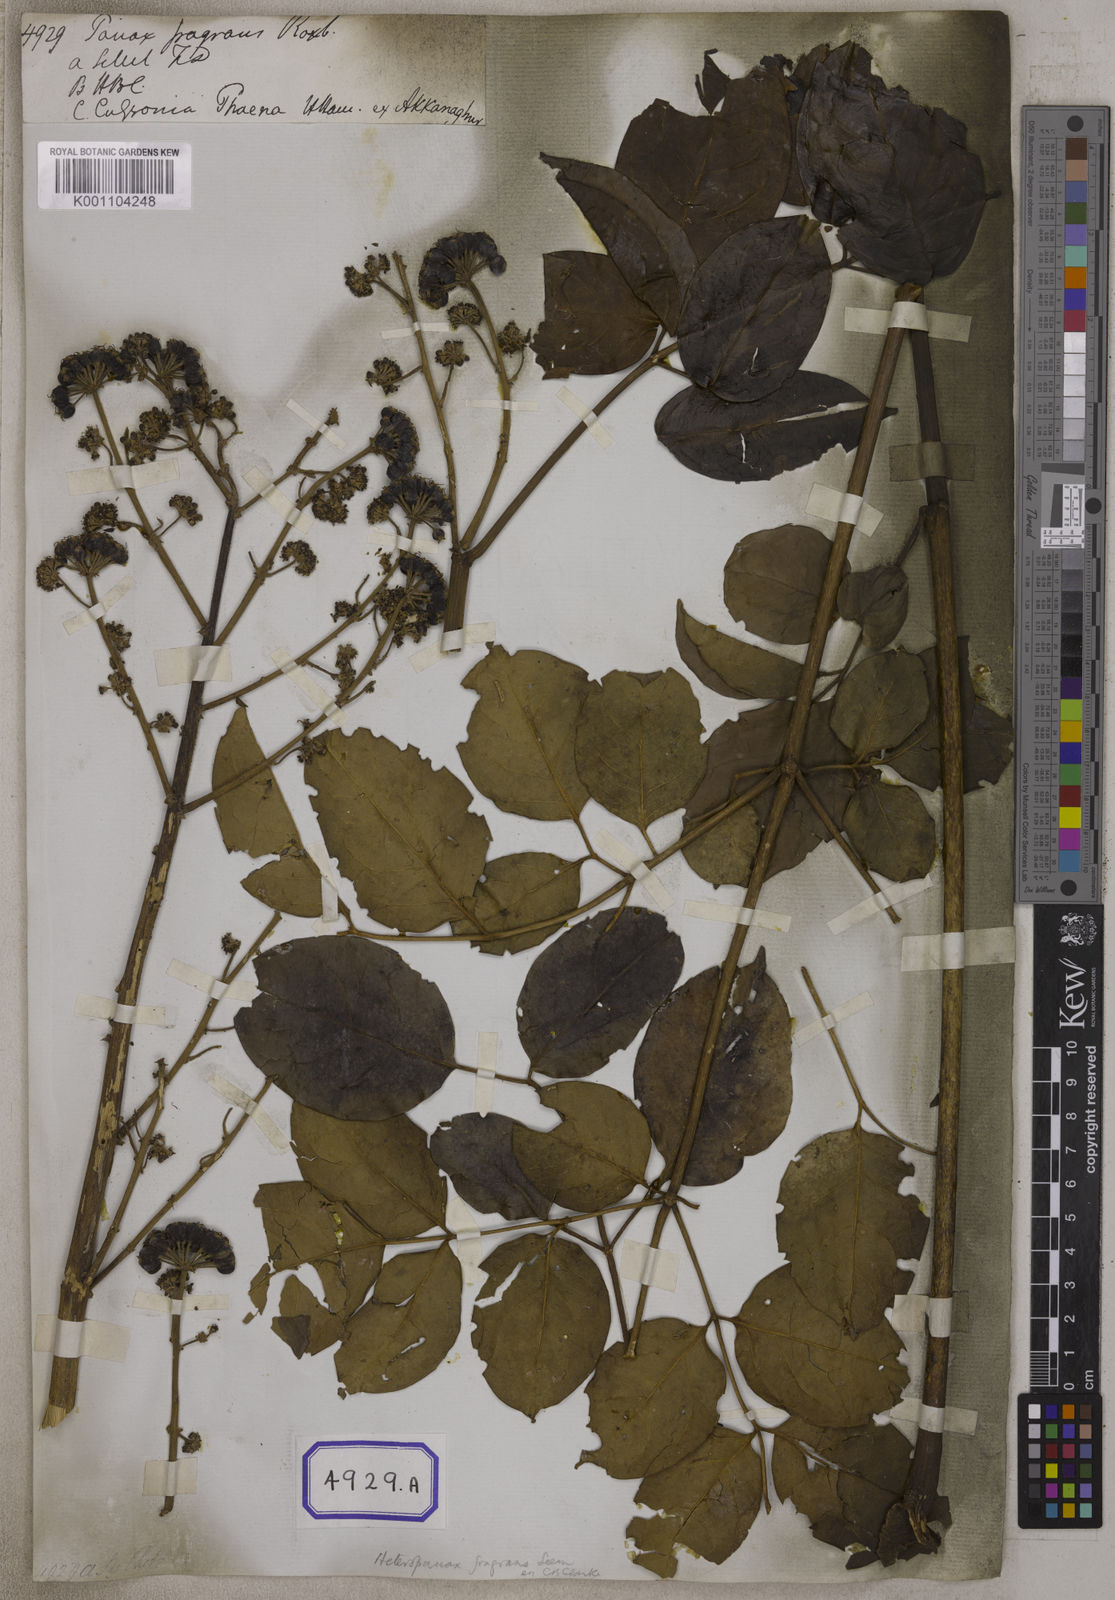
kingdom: Plantae
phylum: Tracheophyta
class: Magnoliopsida
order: Apiales
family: Araliaceae
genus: Heteropanax
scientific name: Heteropanax fragrans
